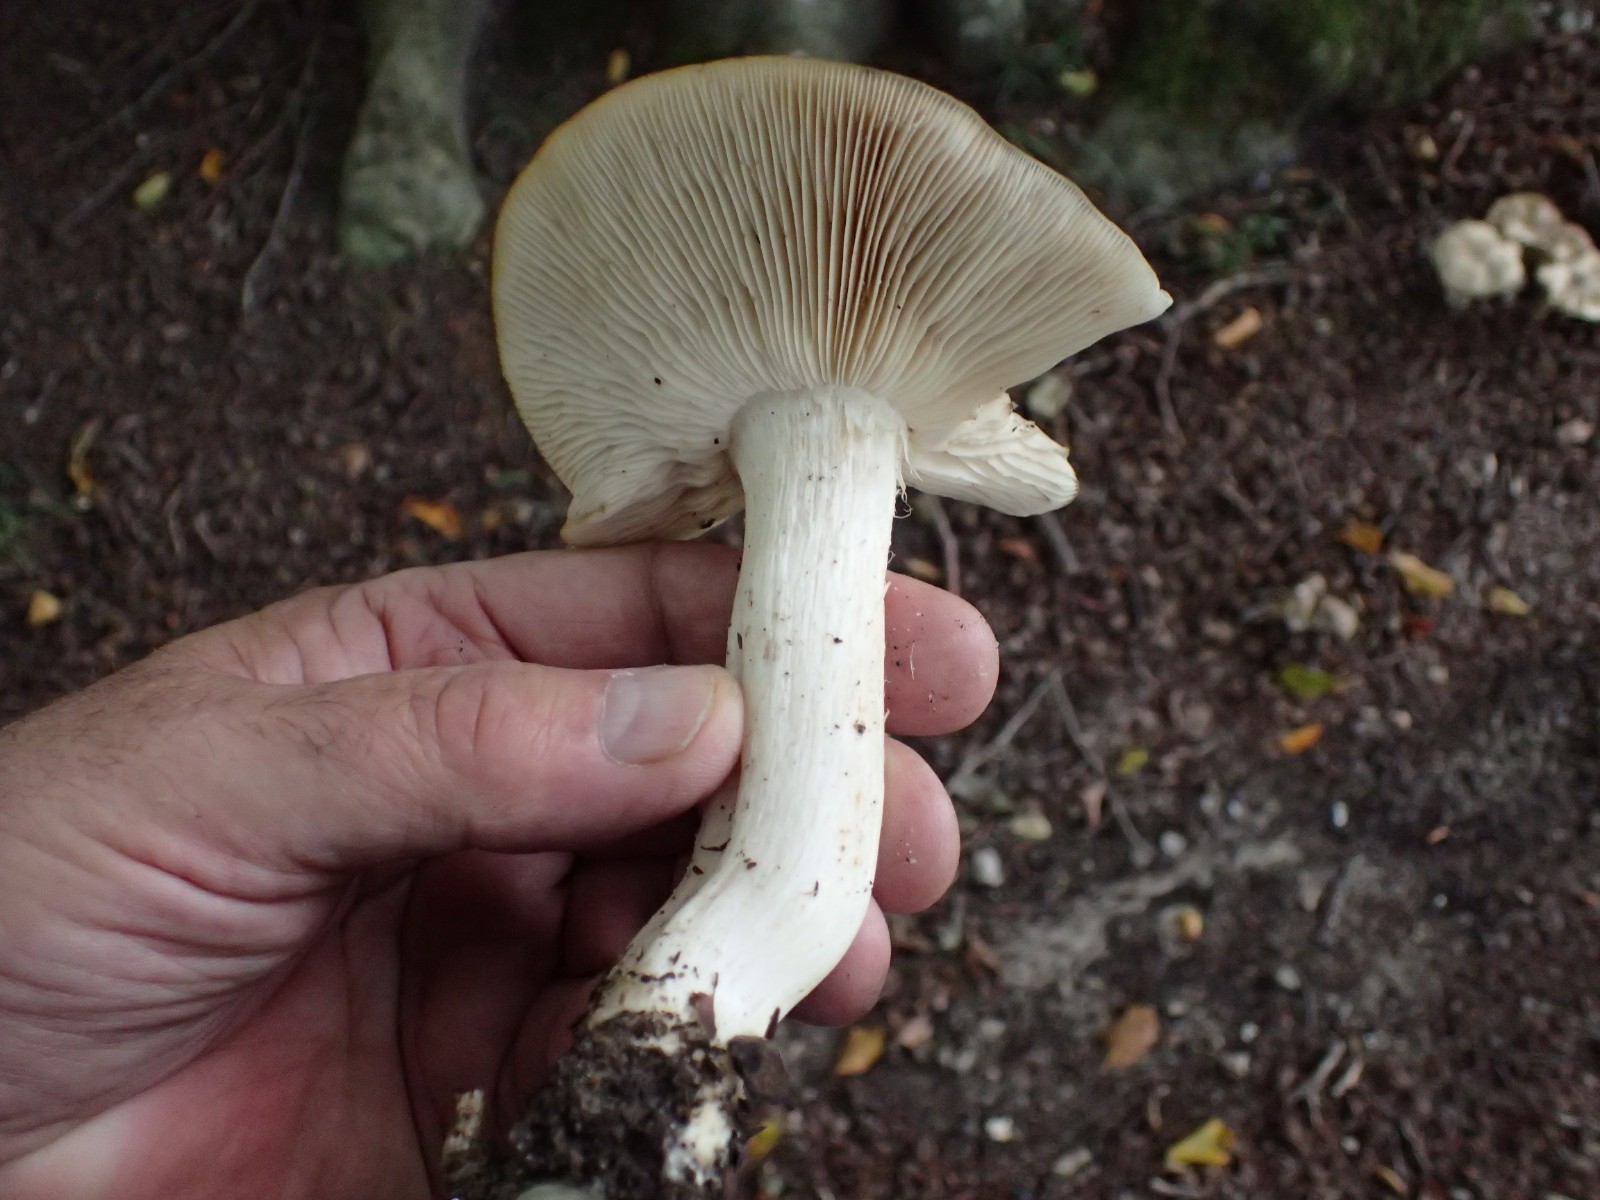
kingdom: Fungi
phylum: Basidiomycota
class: Agaricomycetes
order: Agaricales
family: Entolomataceae
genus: Entoloma
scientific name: Entoloma
